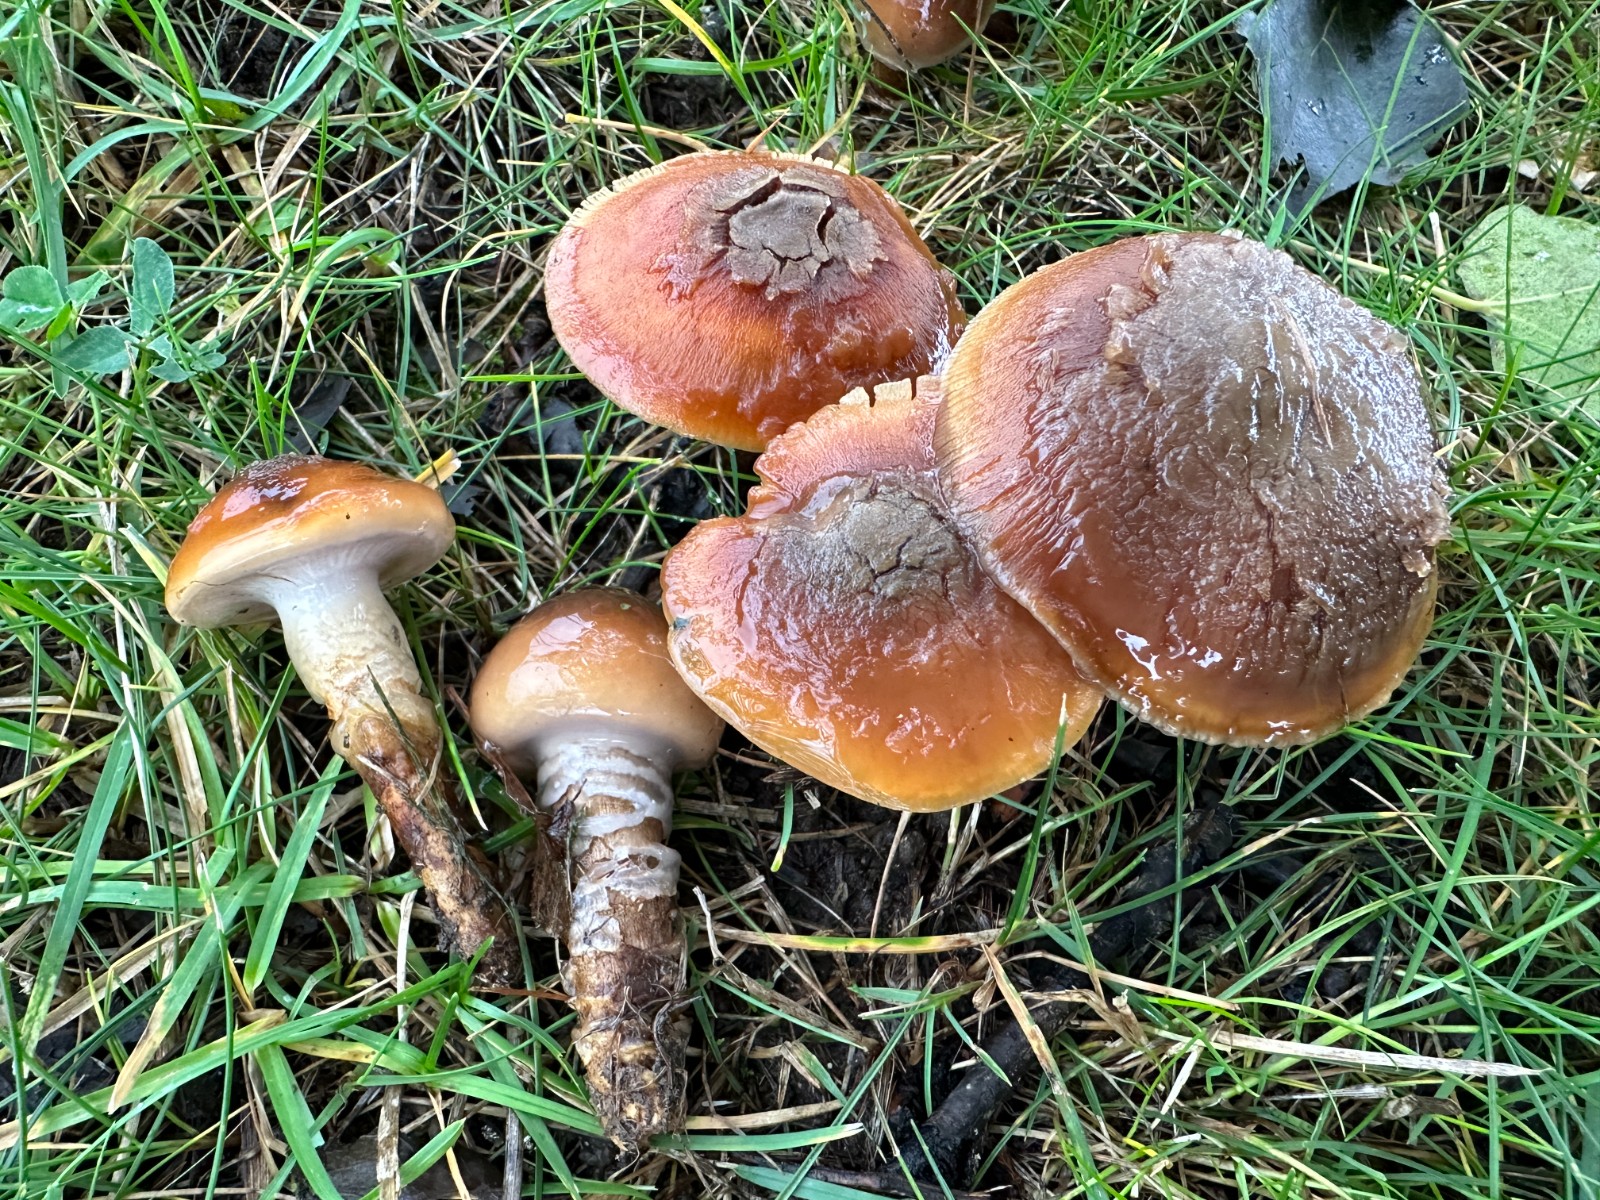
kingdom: Fungi
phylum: Basidiomycota
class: Agaricomycetes
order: Agaricales
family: Cortinariaceae
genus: Cortinarius
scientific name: Cortinarius trivialis
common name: brunslimet slørhat
